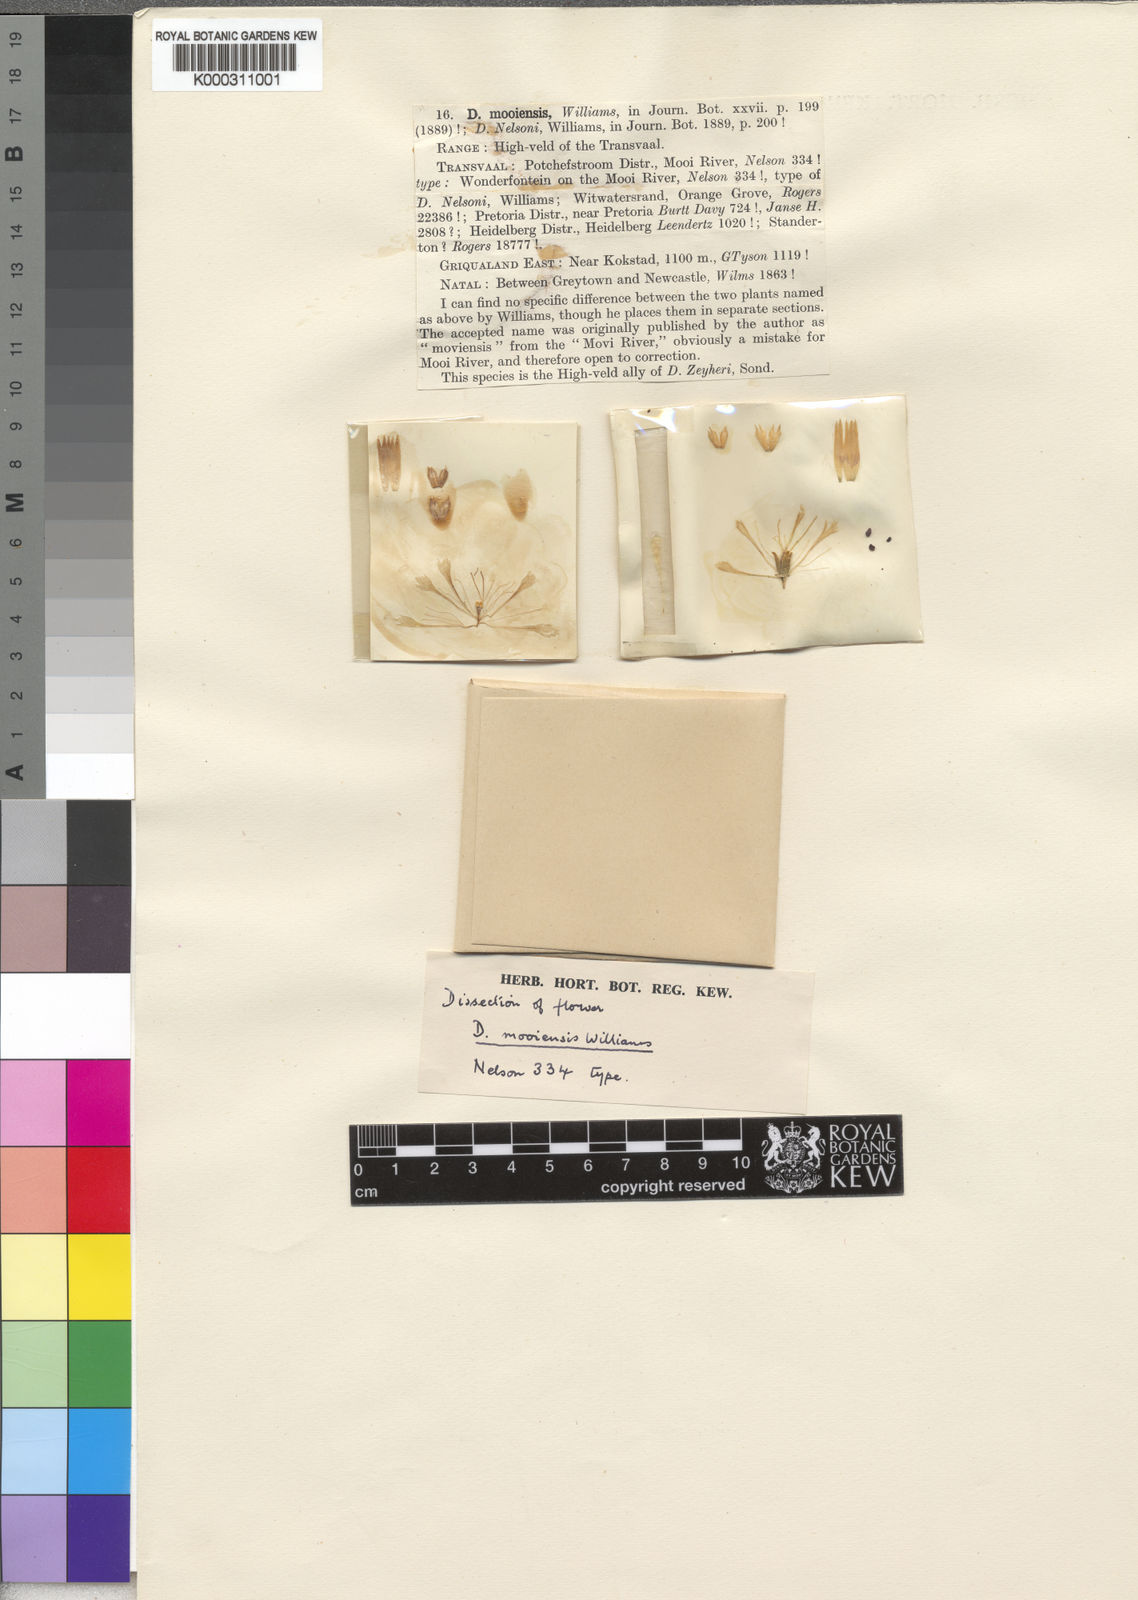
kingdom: Plantae
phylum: Tracheophyta
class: Magnoliopsida
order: Caryophyllales
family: Caryophyllaceae
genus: Dianthus
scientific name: Dianthus
